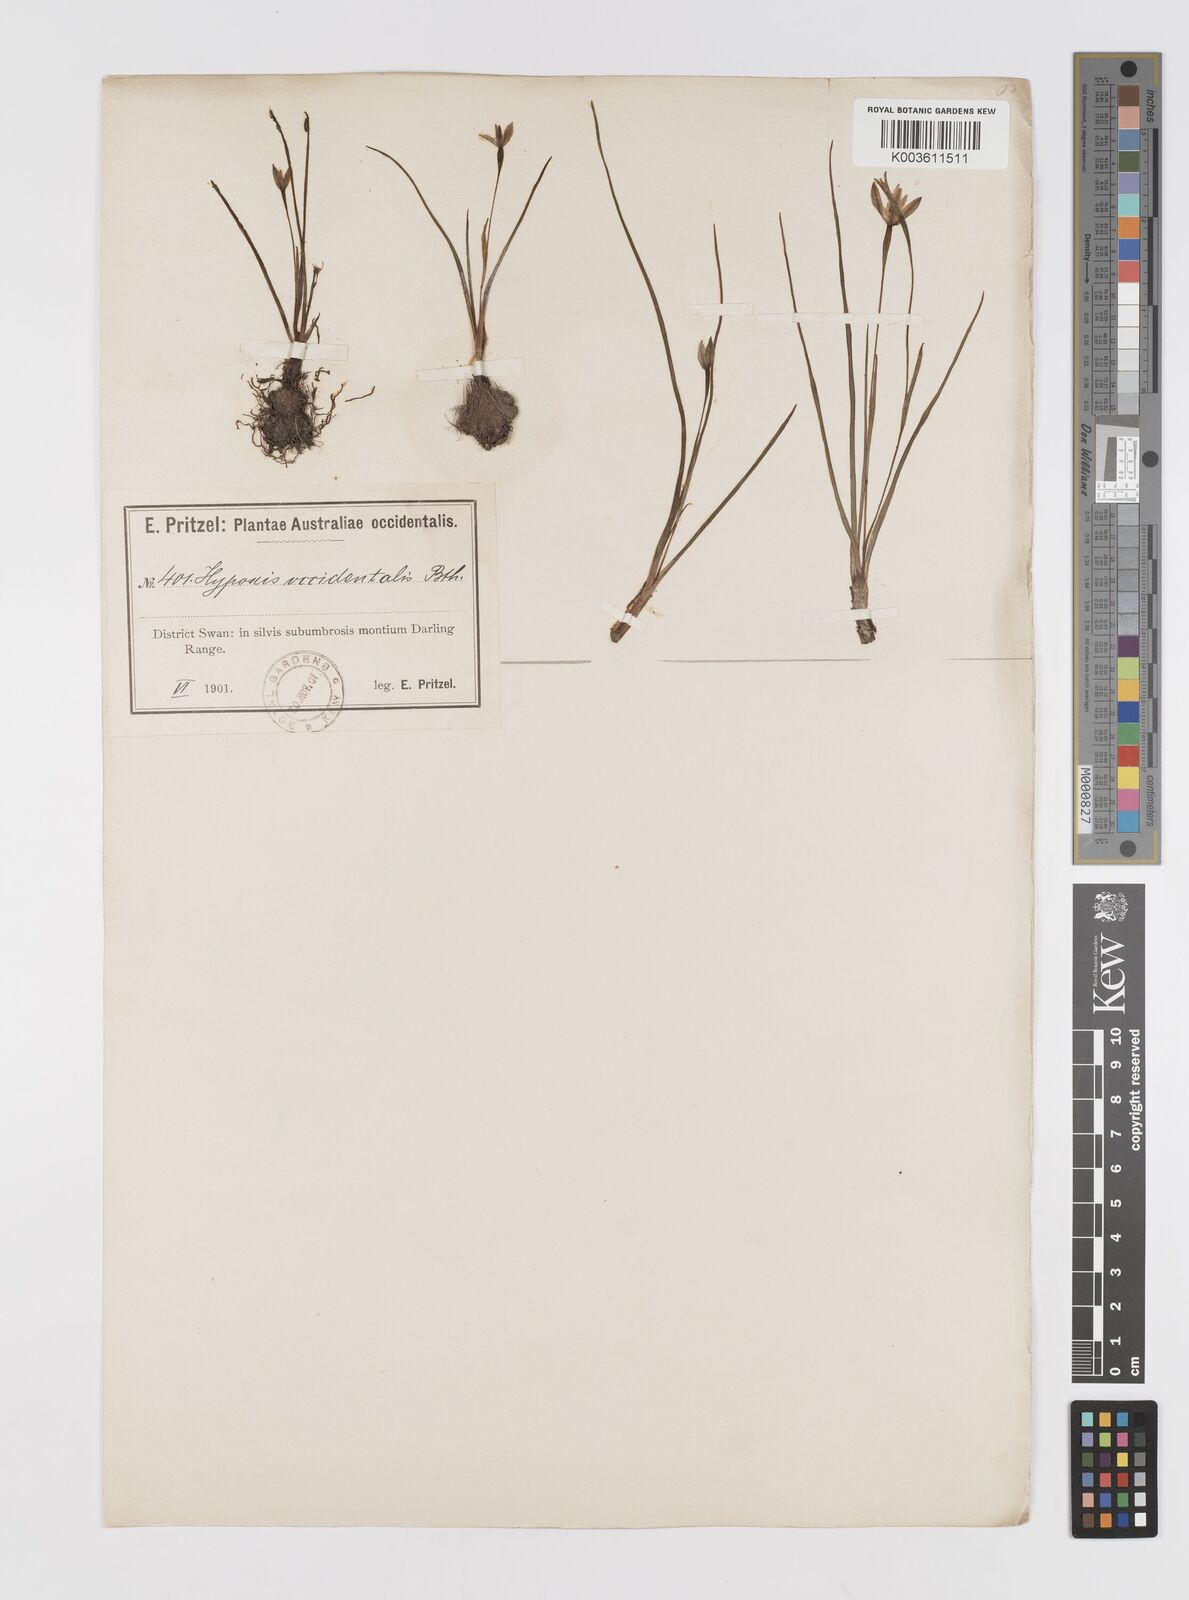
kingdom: Plantae
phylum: Tracheophyta
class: Liliopsida
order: Asparagales
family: Hypoxidaceae
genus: Pauridia
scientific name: Pauridia occidentalis
